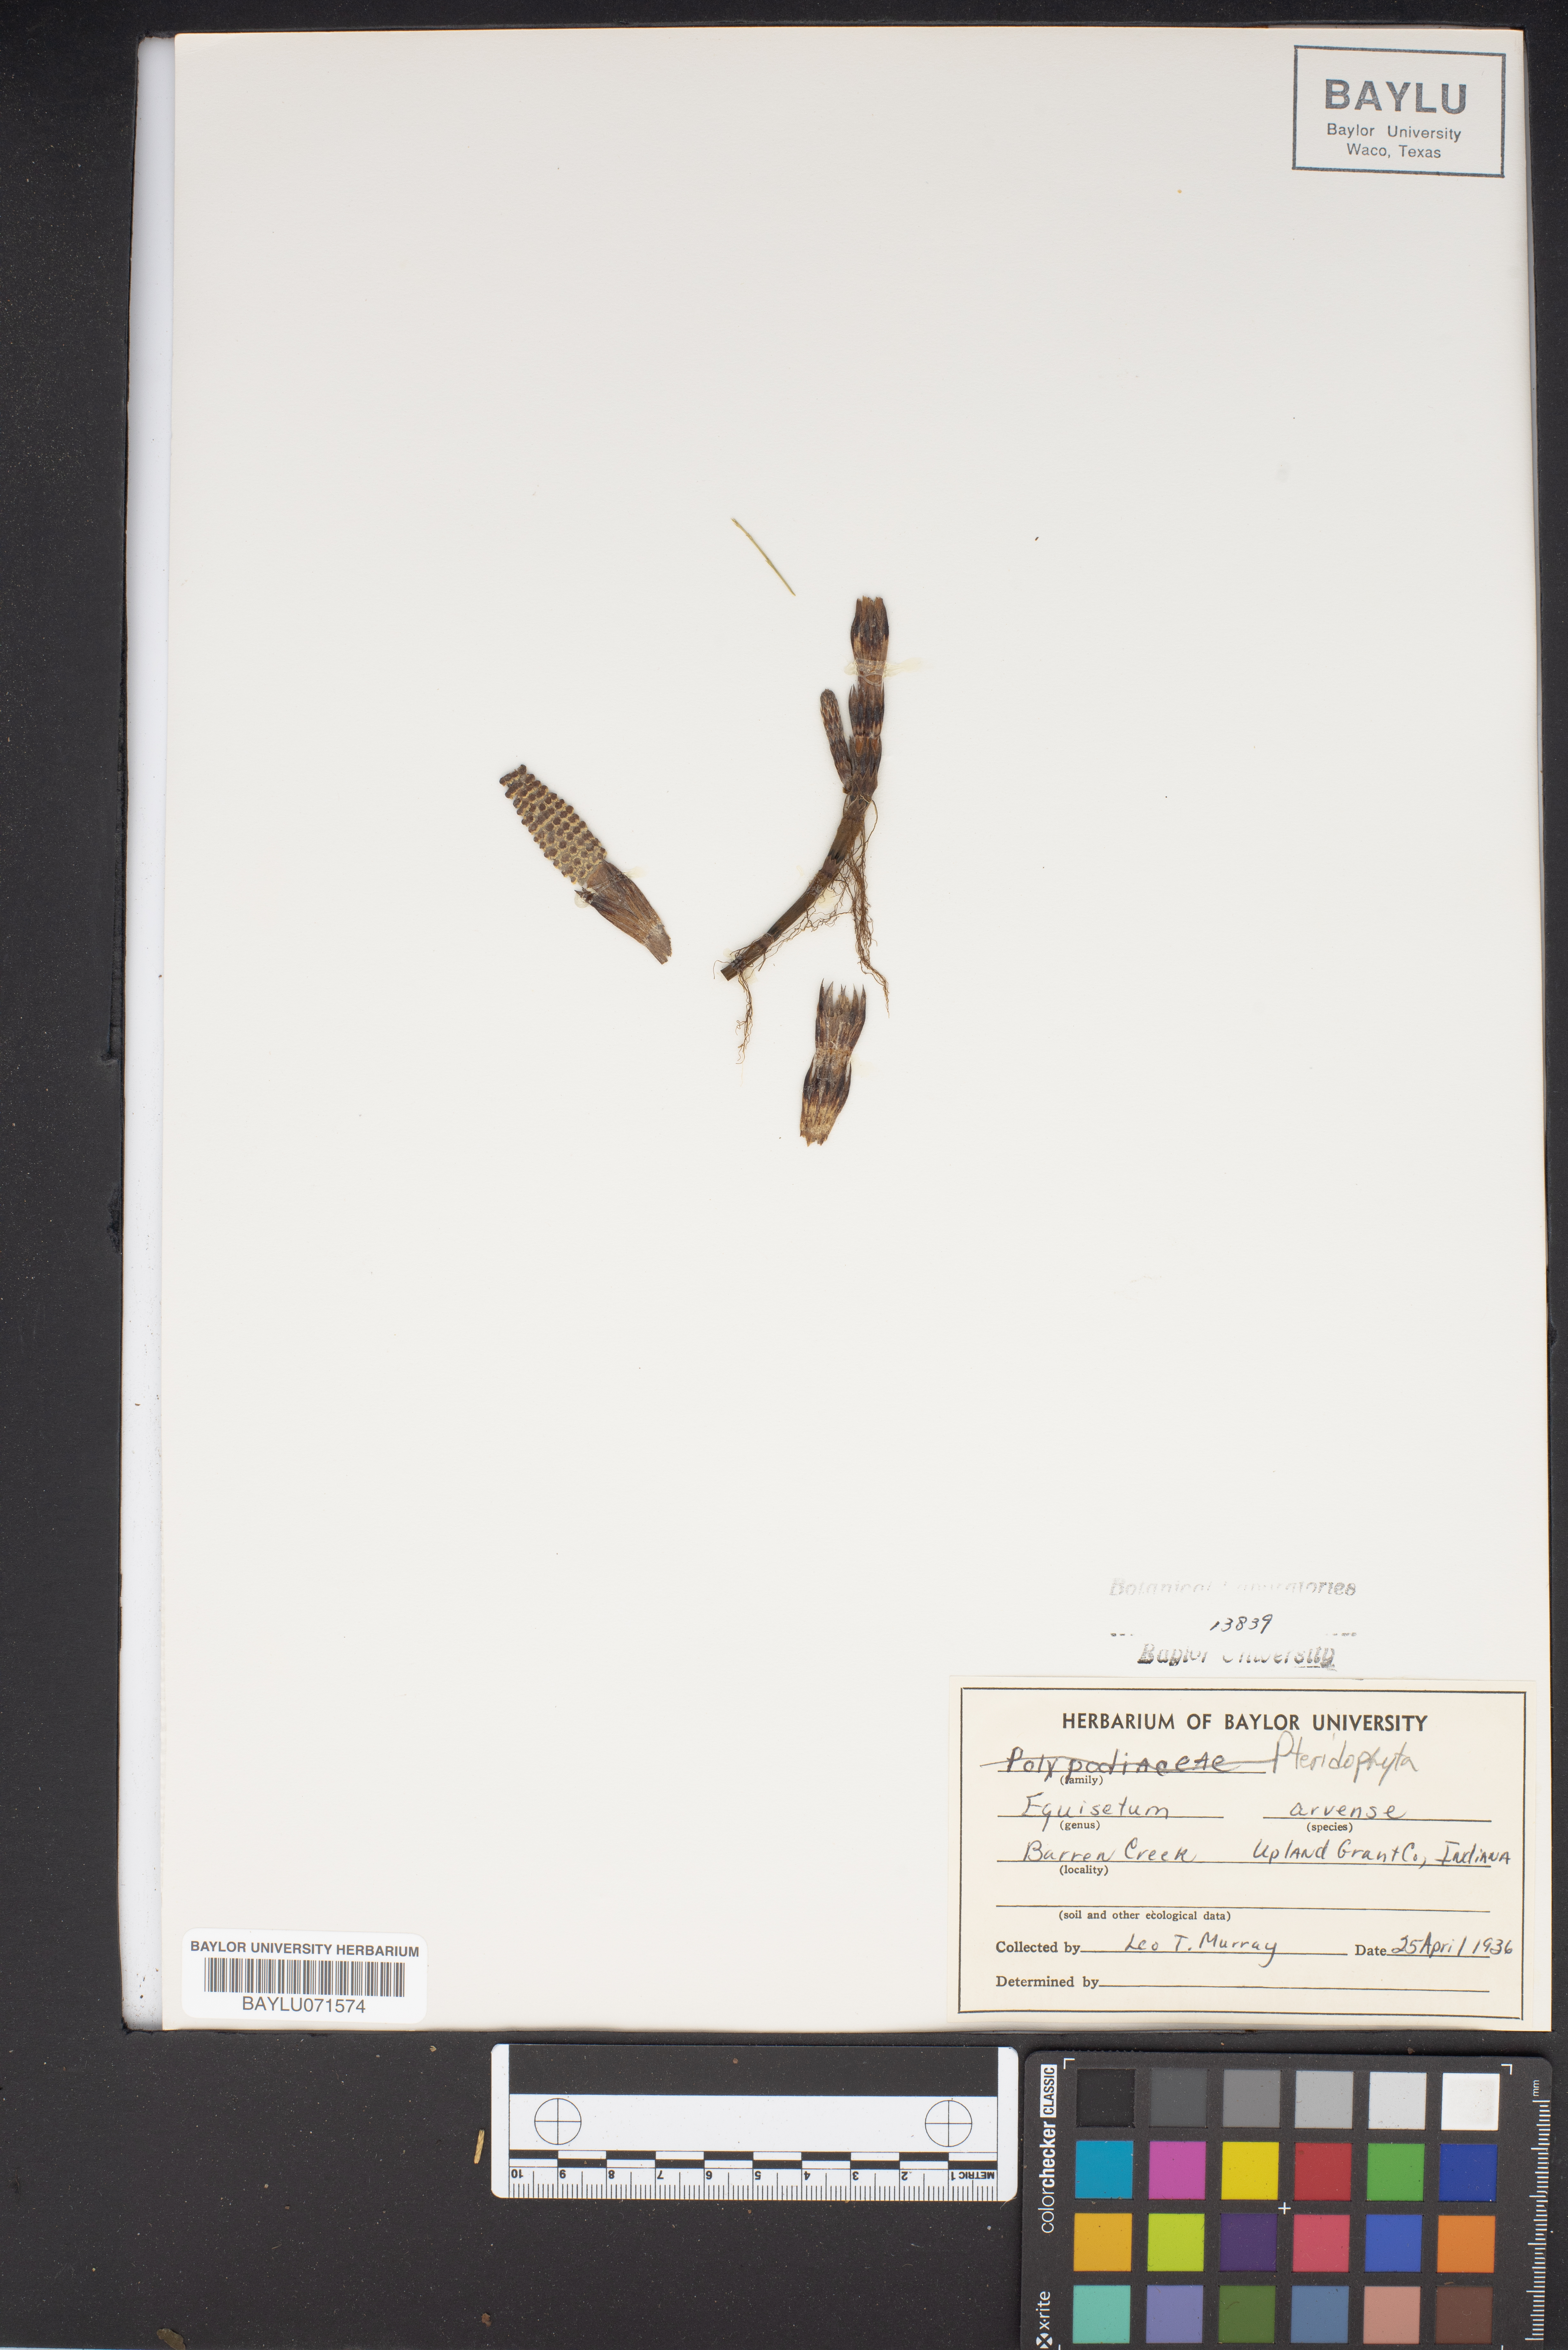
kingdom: Plantae
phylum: Tracheophyta
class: Polypodiopsida
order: Equisetales
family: Equisetaceae
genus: Equisetum
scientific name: Equisetum arvense
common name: Field horsetail
